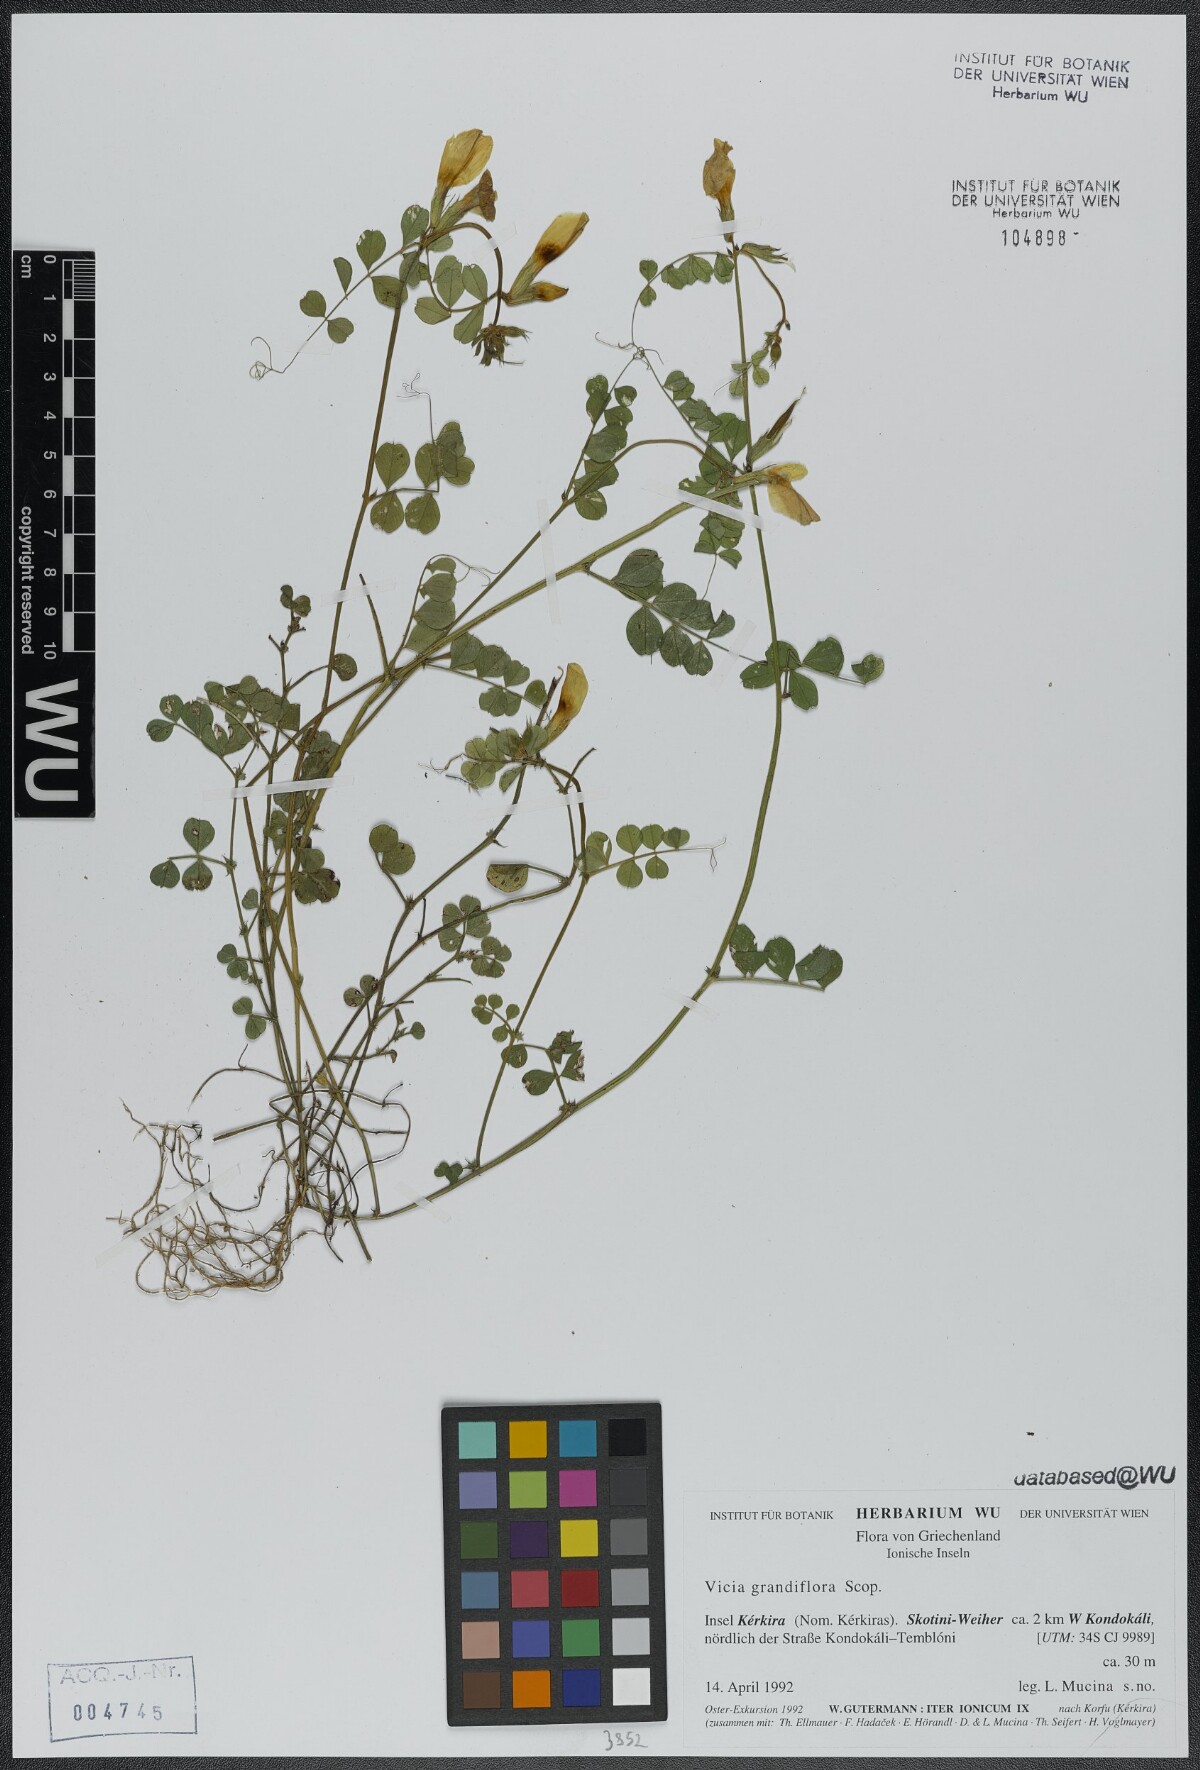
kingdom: Plantae
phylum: Tracheophyta
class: Magnoliopsida
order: Fabales
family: Fabaceae
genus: Vicia
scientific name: Vicia grandiflora
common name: Large yellow vetch
